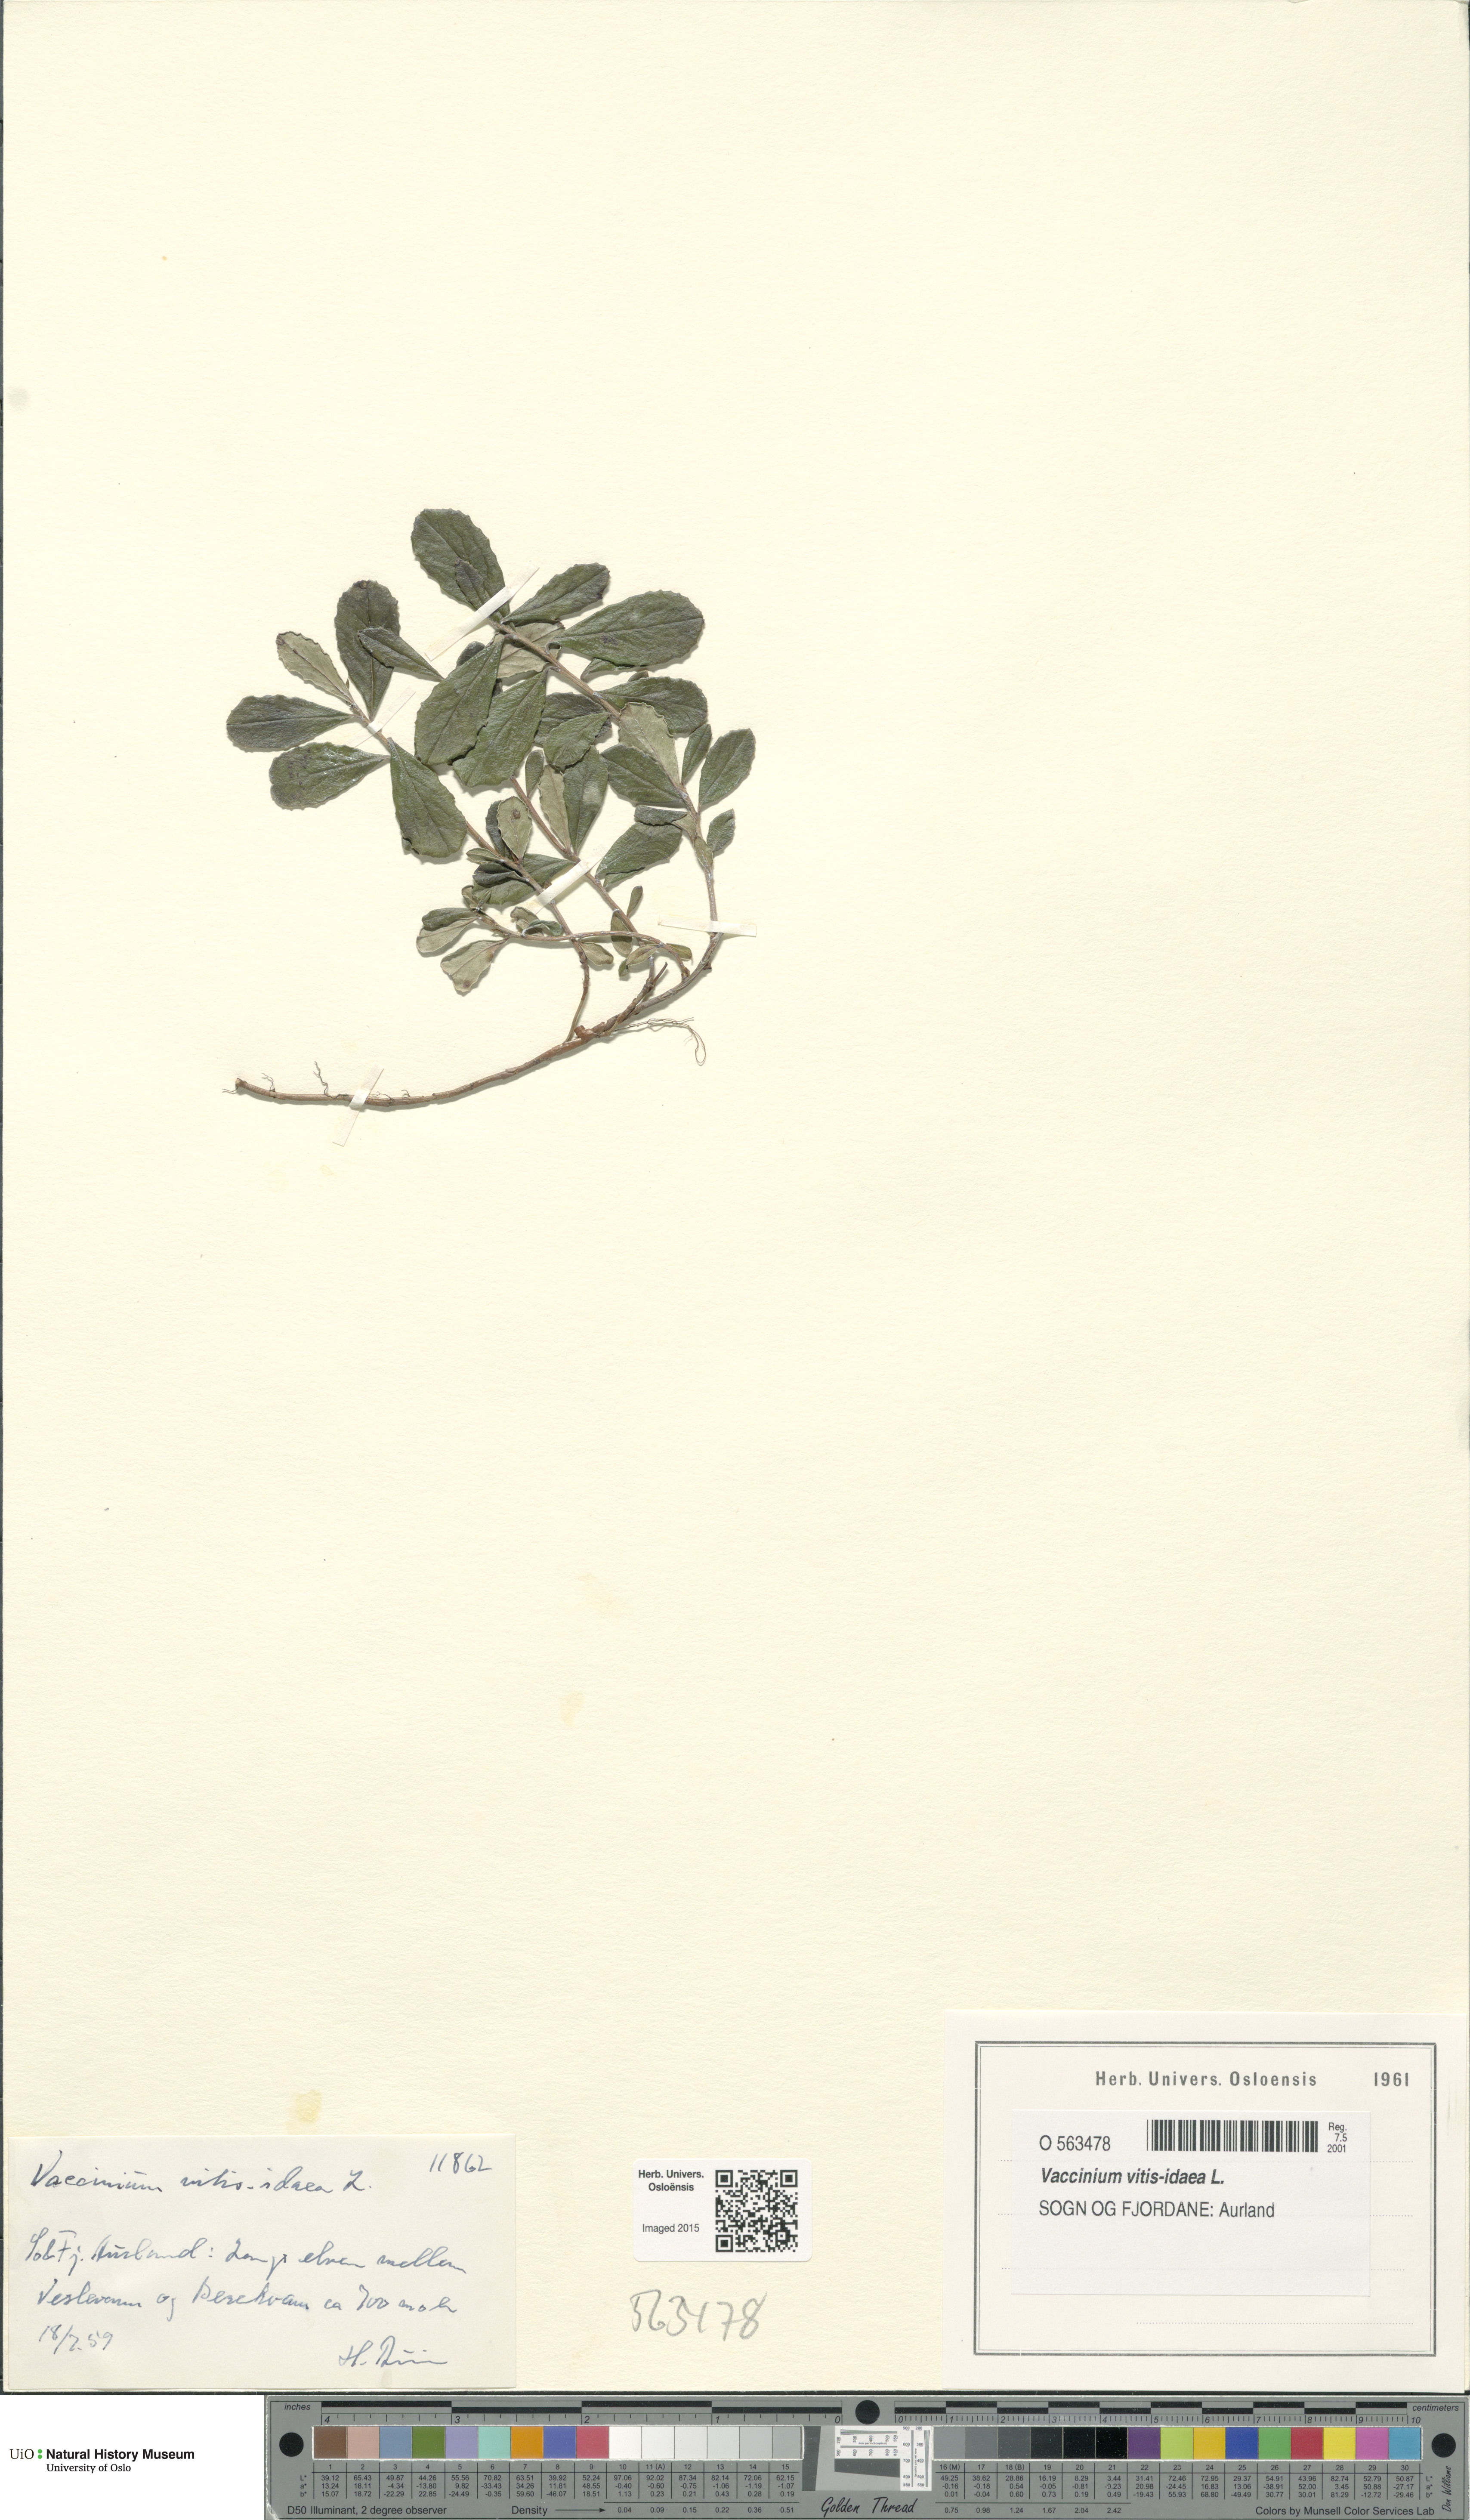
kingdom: Plantae
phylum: Tracheophyta
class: Magnoliopsida
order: Ericales
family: Ericaceae
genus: Vaccinium
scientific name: Vaccinium vitis-idaea
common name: Cowberry
